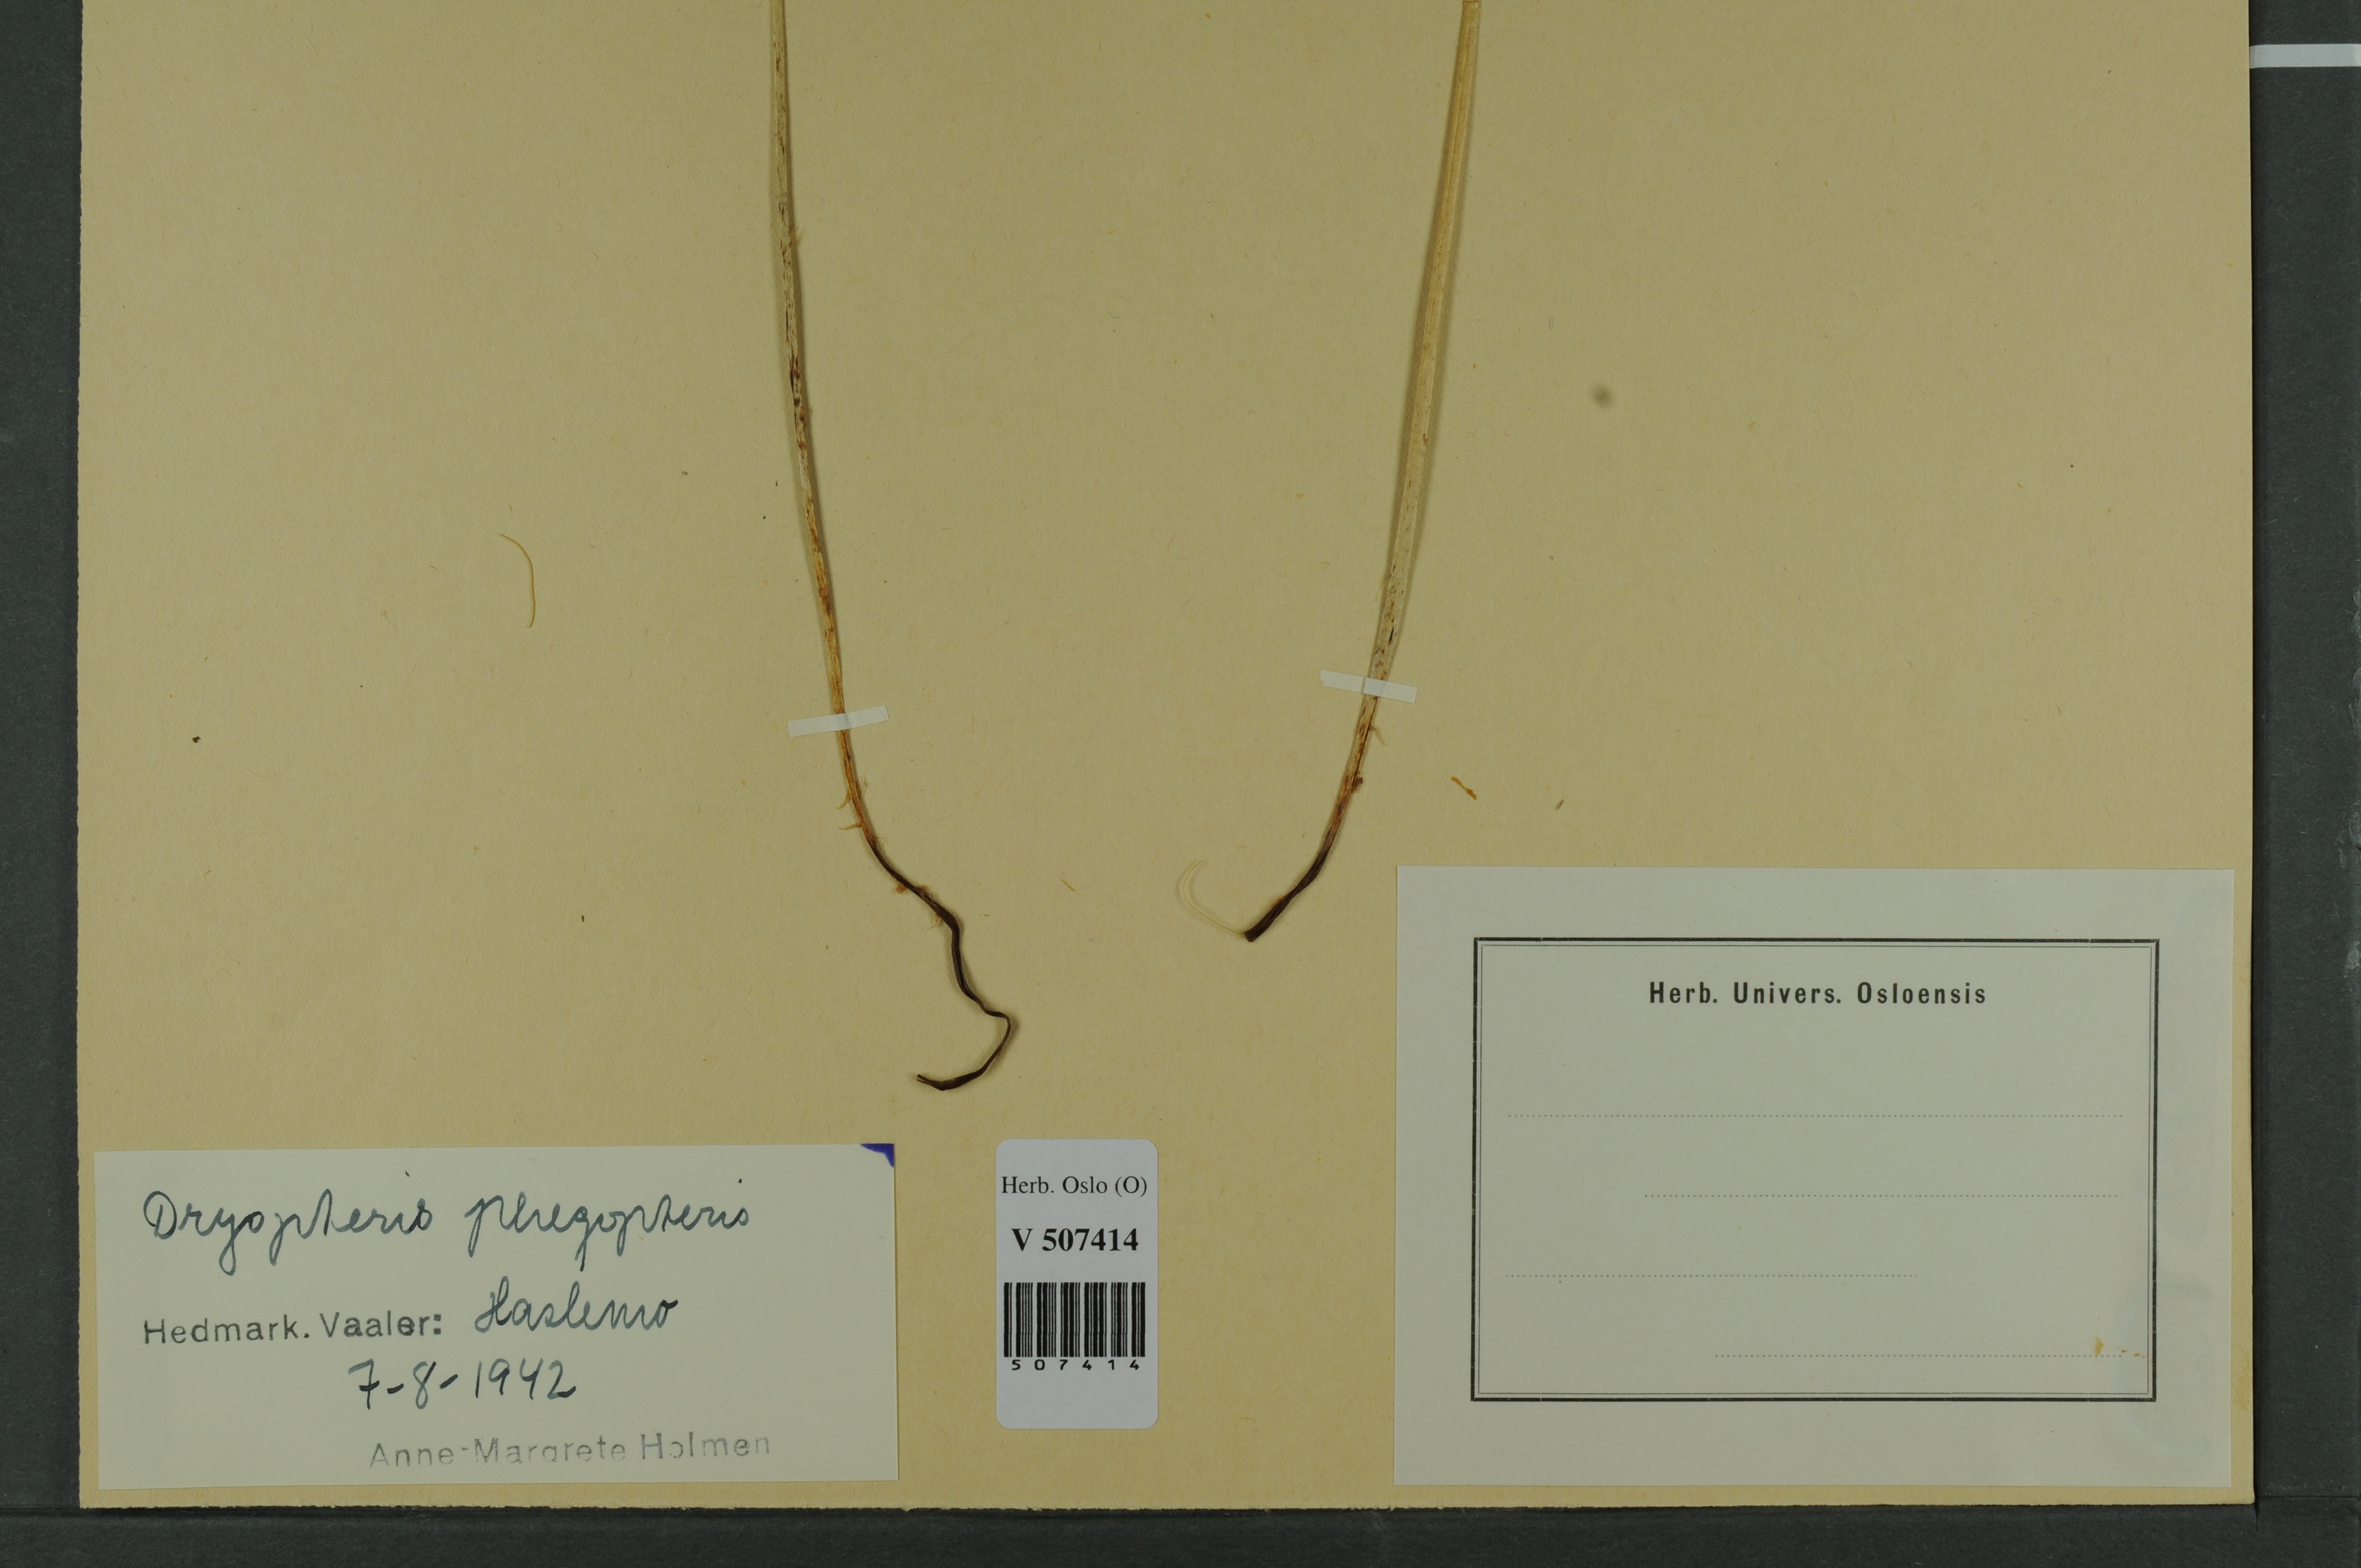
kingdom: Plantae
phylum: Tracheophyta
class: Polypodiopsida
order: Polypodiales
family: Thelypteridaceae
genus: Phegopteris
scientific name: Phegopteris connectilis
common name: Beech fern
